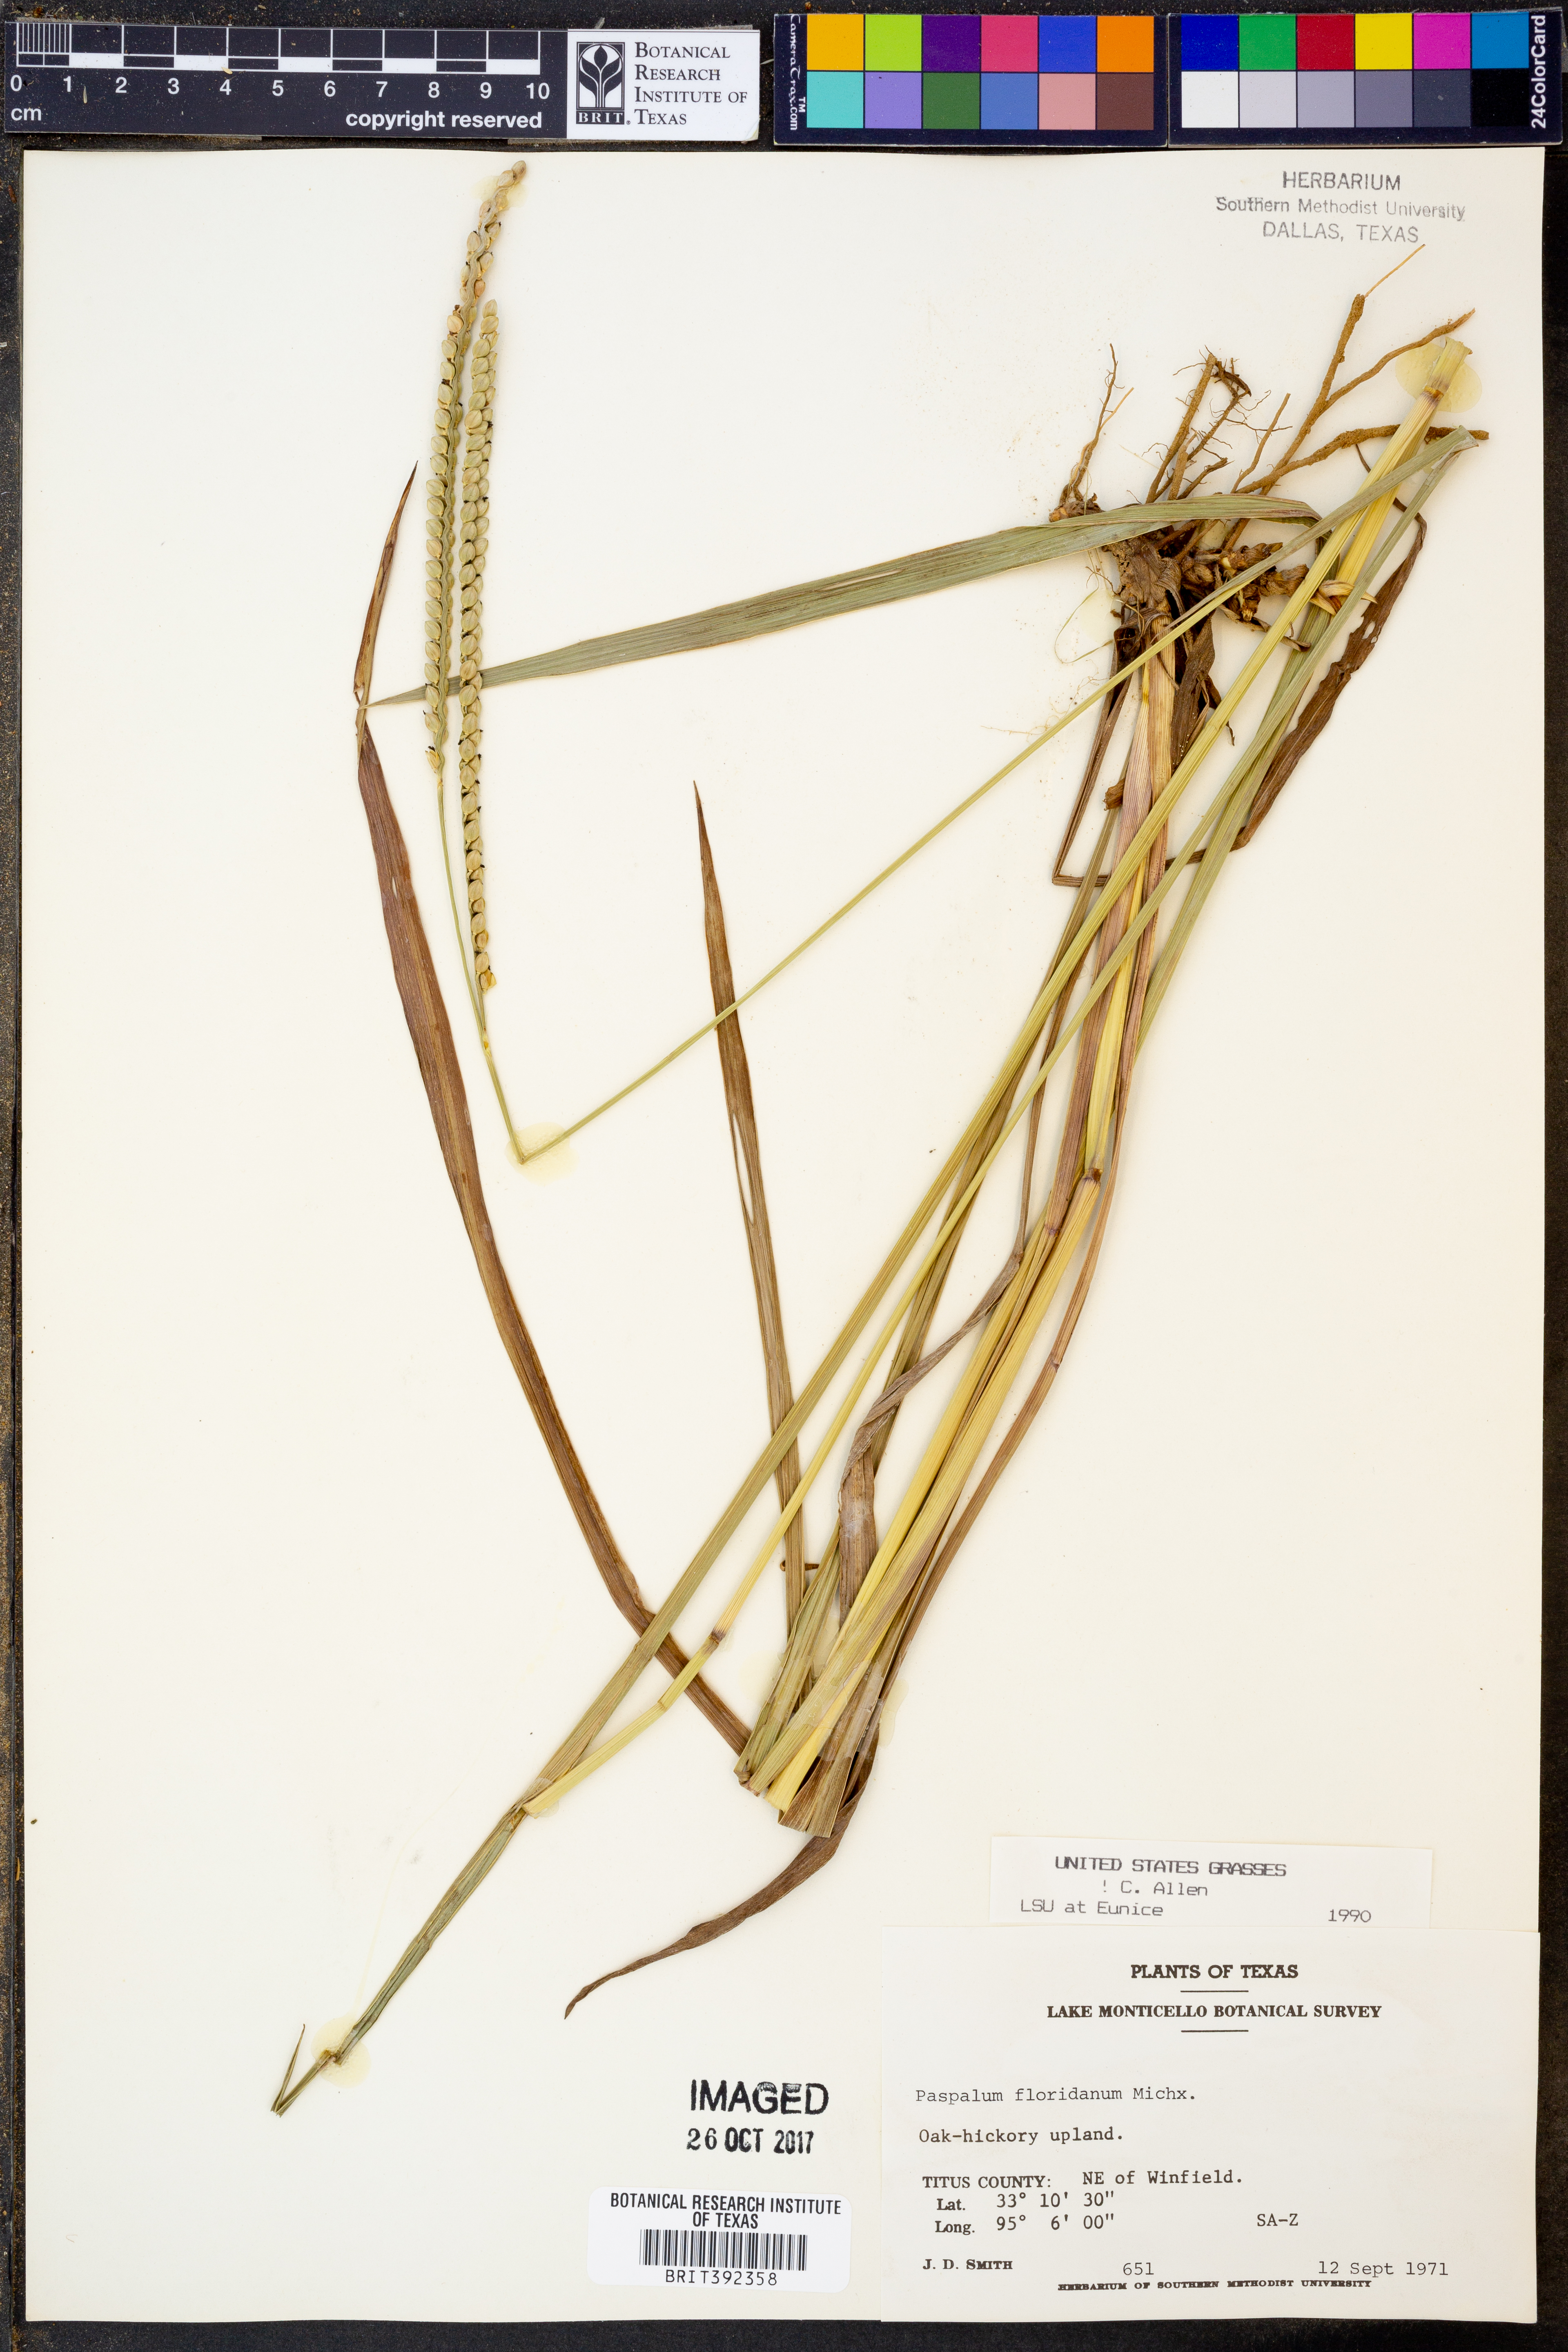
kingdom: Plantae
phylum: Tracheophyta
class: Liliopsida
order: Poales
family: Poaceae
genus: Paspalum
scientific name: Paspalum floridanum
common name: Florida paspalum
